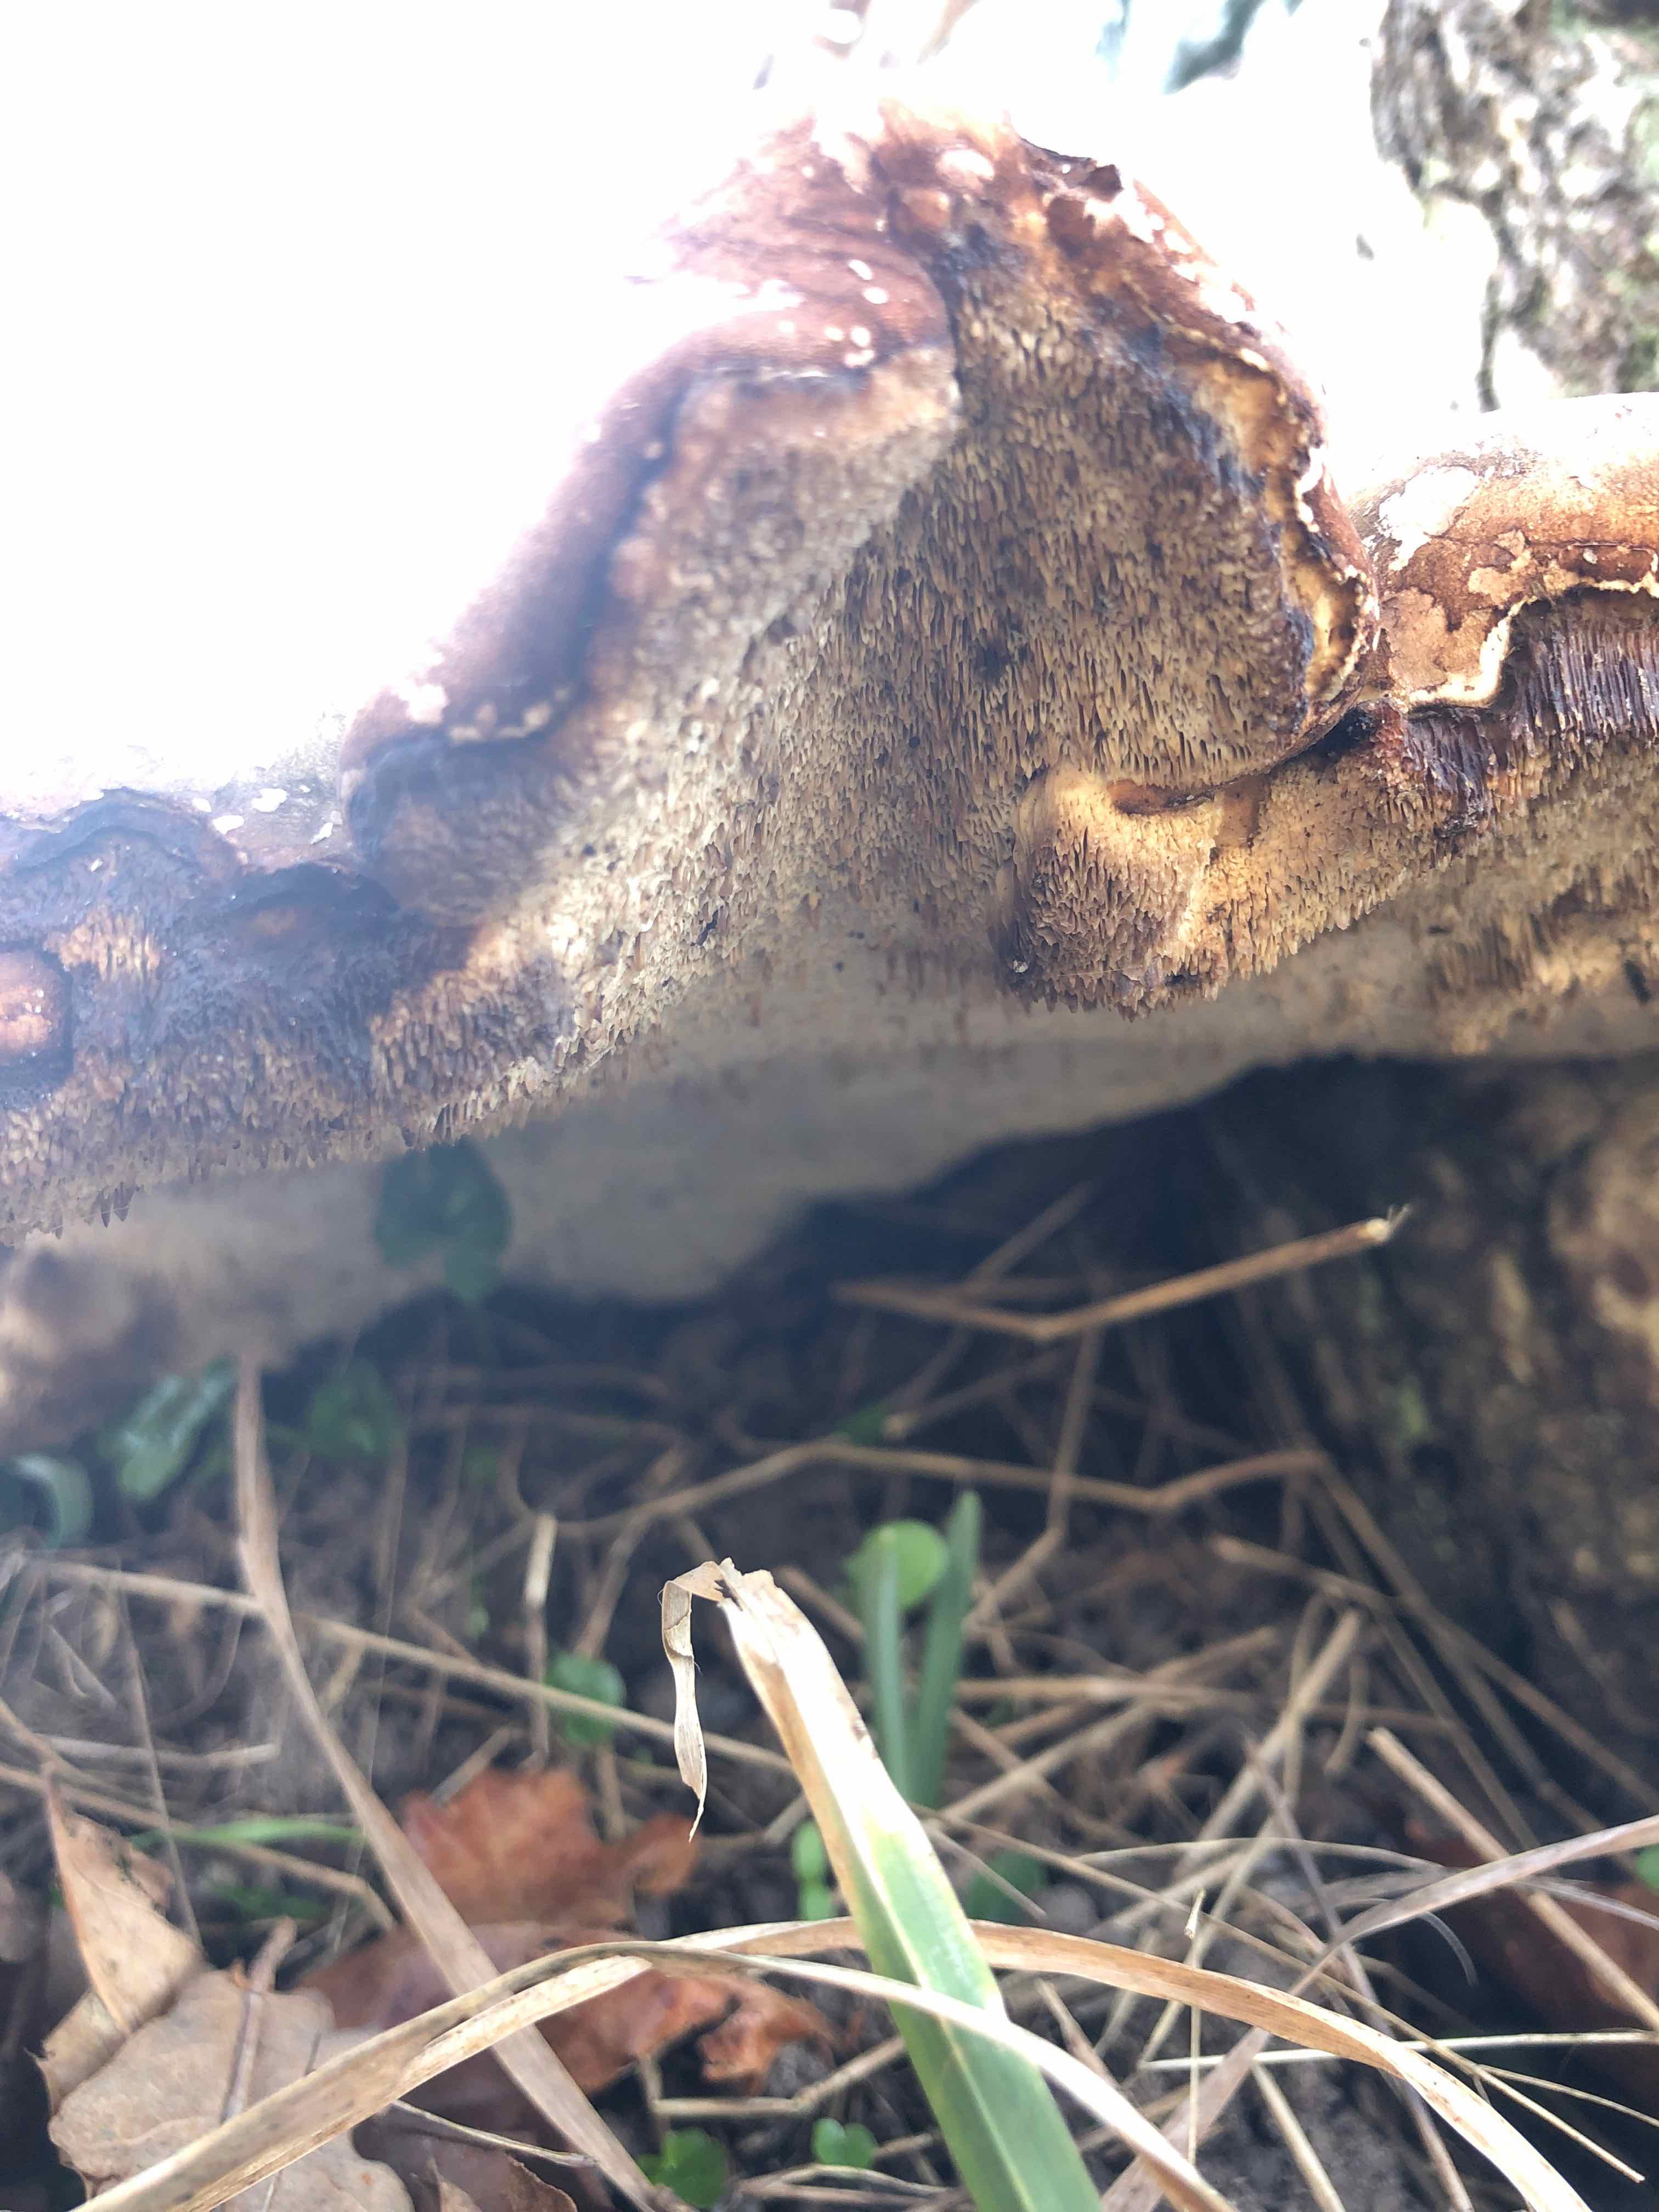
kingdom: Fungi
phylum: Basidiomycota
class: Agaricomycetes
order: Polyporales
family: Fomitopsidaceae
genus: Fomitopsis
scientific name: Fomitopsis betulina
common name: birkeporesvamp
